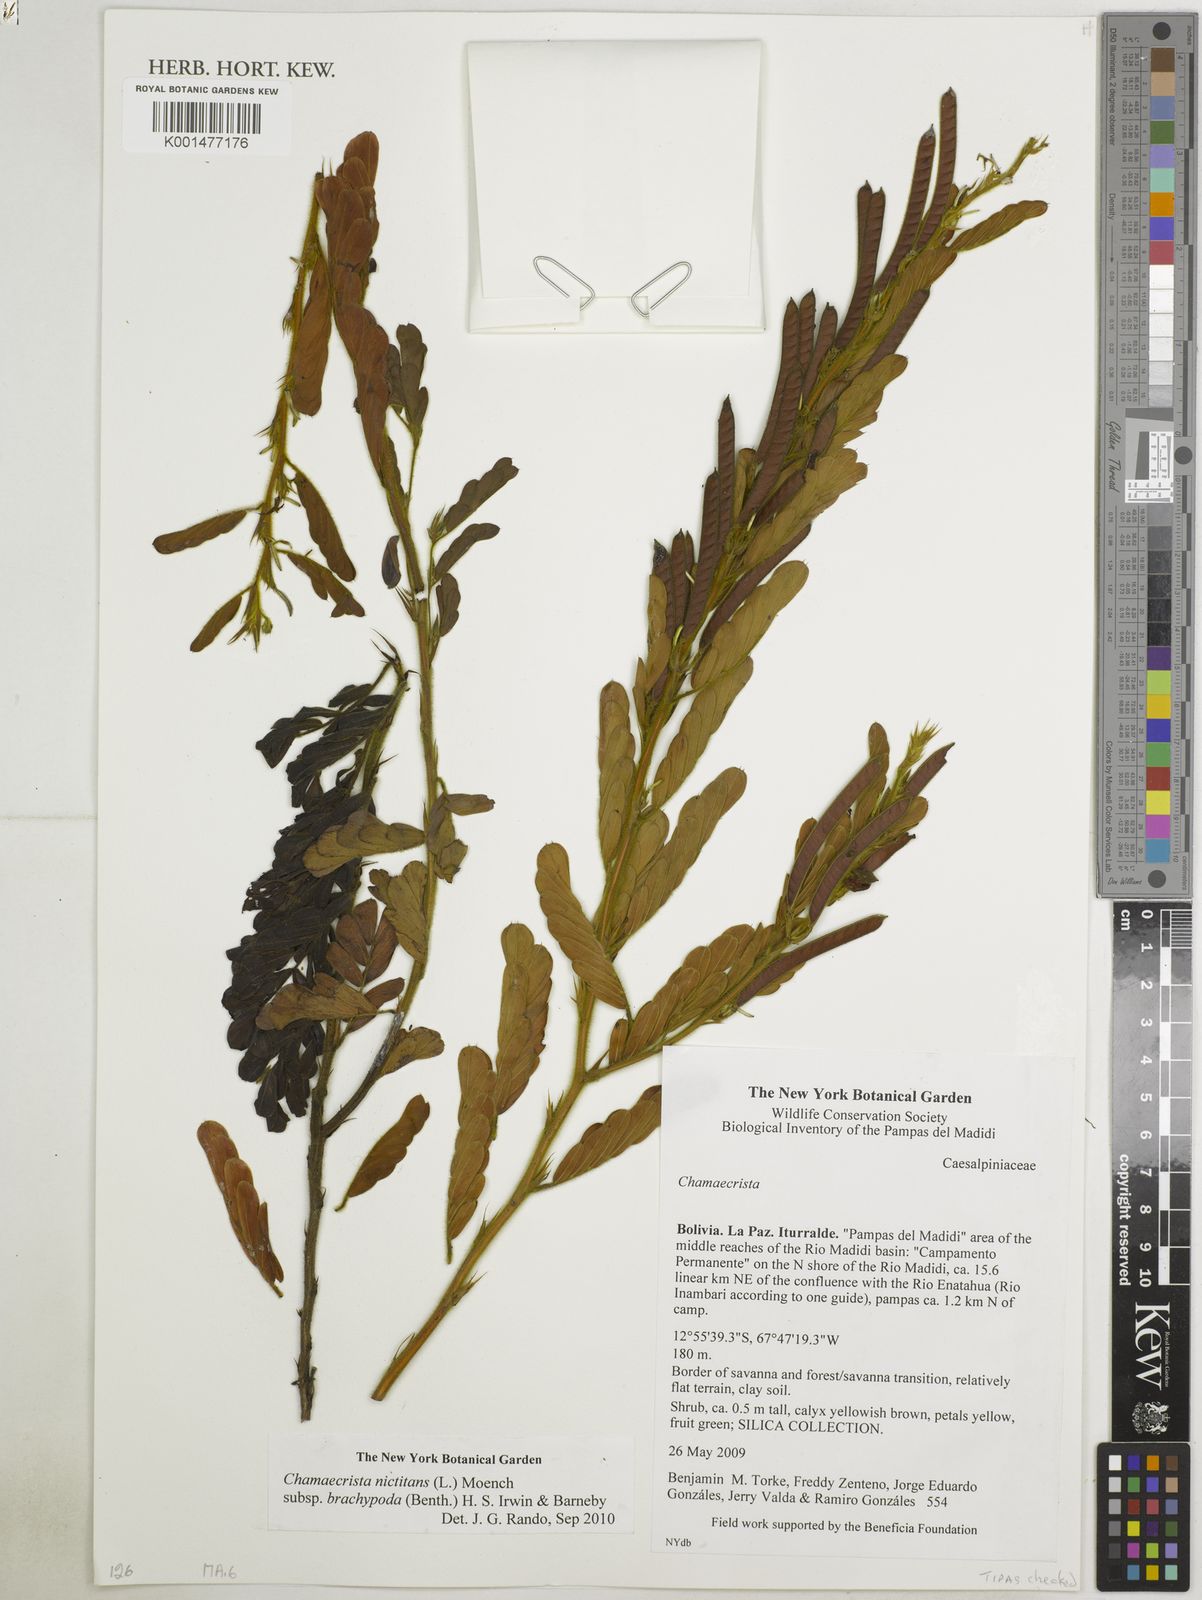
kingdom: Plantae
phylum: Tracheophyta
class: Magnoliopsida
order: Fabales
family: Fabaceae
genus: Chamaecrista
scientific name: Chamaecrista nictitans
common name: Sensitive cassia
